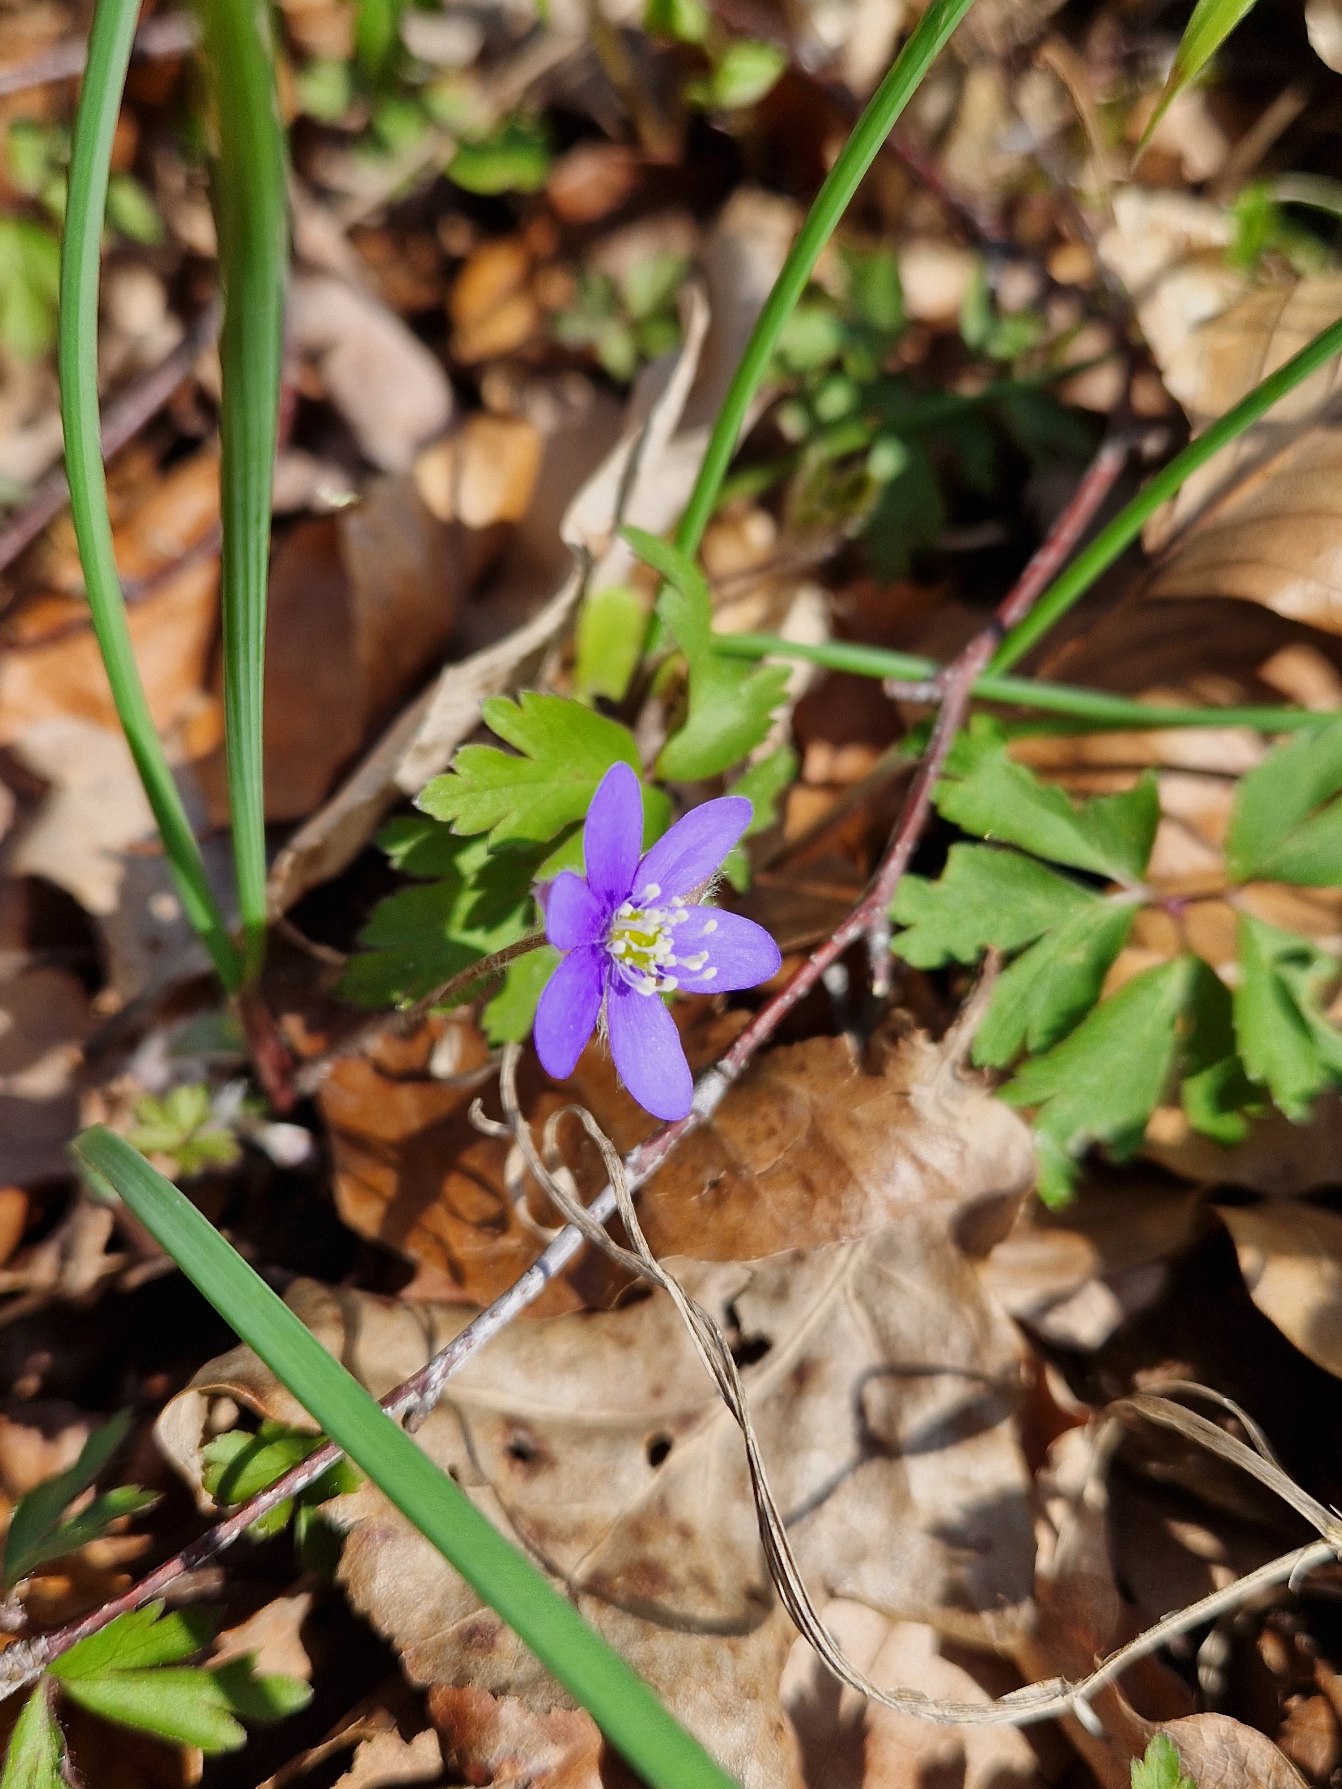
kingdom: Plantae
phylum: Tracheophyta
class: Magnoliopsida
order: Ranunculales
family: Ranunculaceae
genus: Hepatica
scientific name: Hepatica nobilis
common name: Blå anemone
